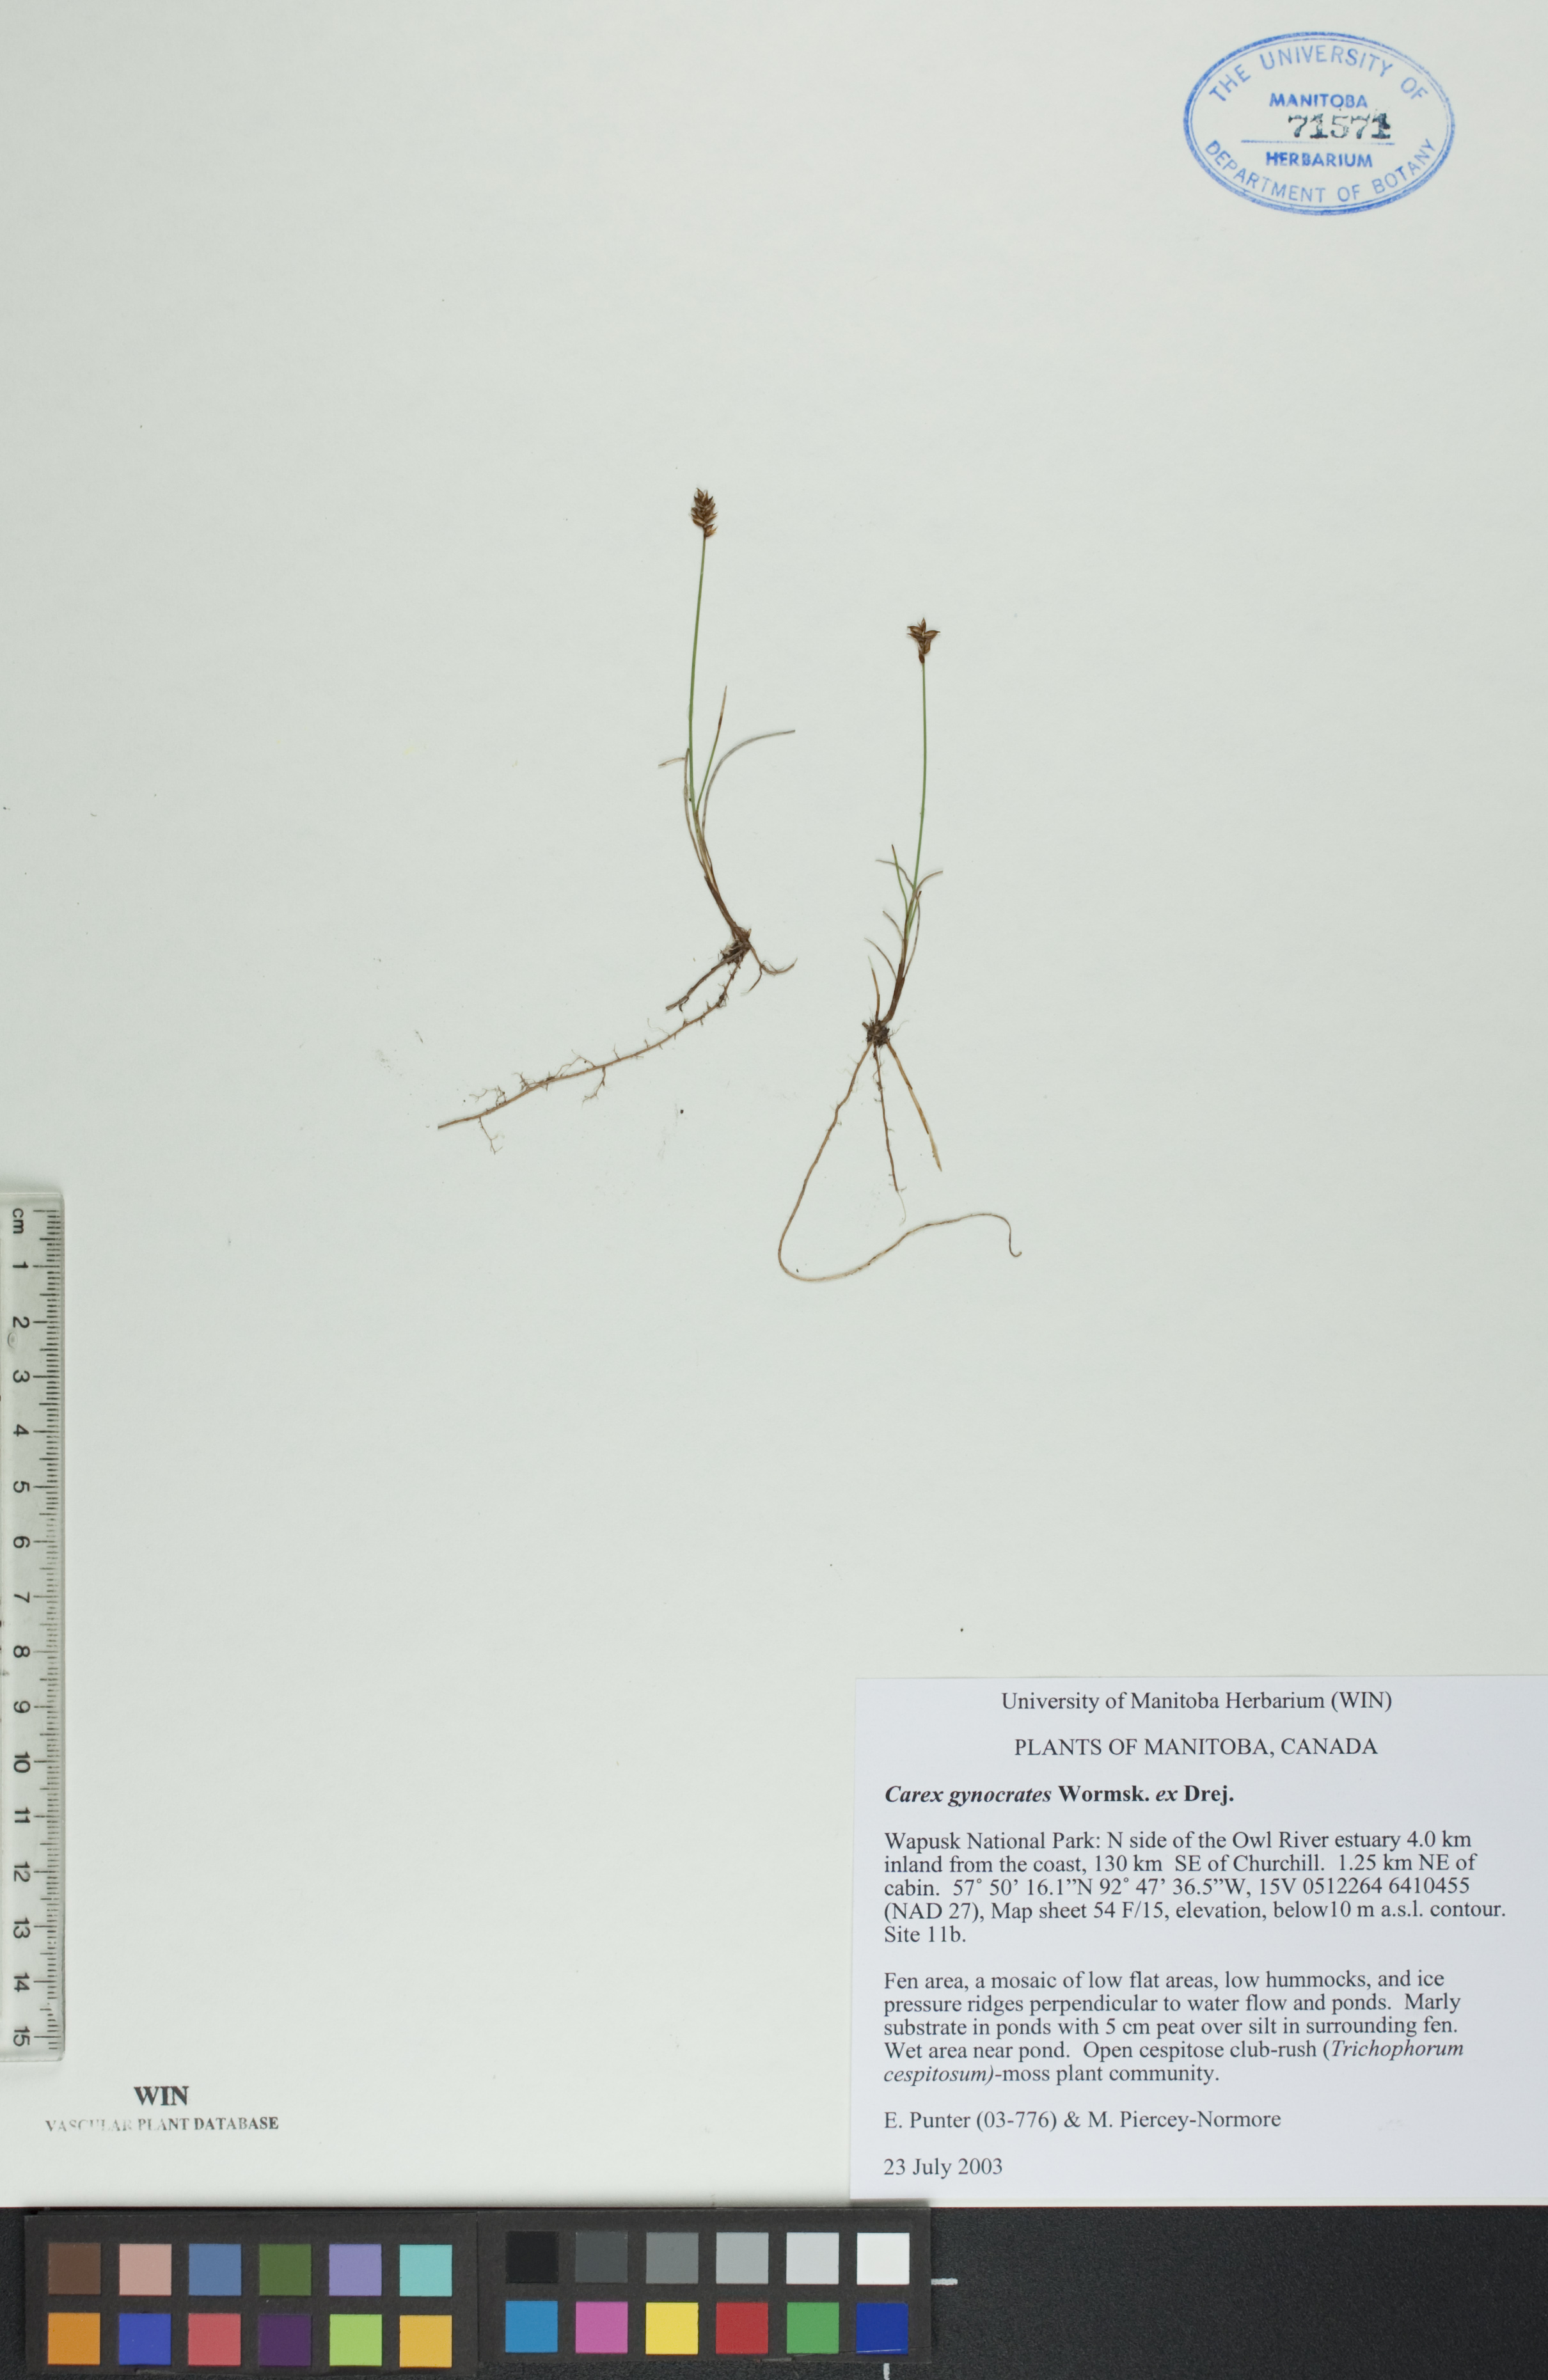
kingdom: Plantae
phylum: Tracheophyta
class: Liliopsida
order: Poales
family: Cyperaceae
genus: Carex
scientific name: Carex nardina
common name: Nard sedge
